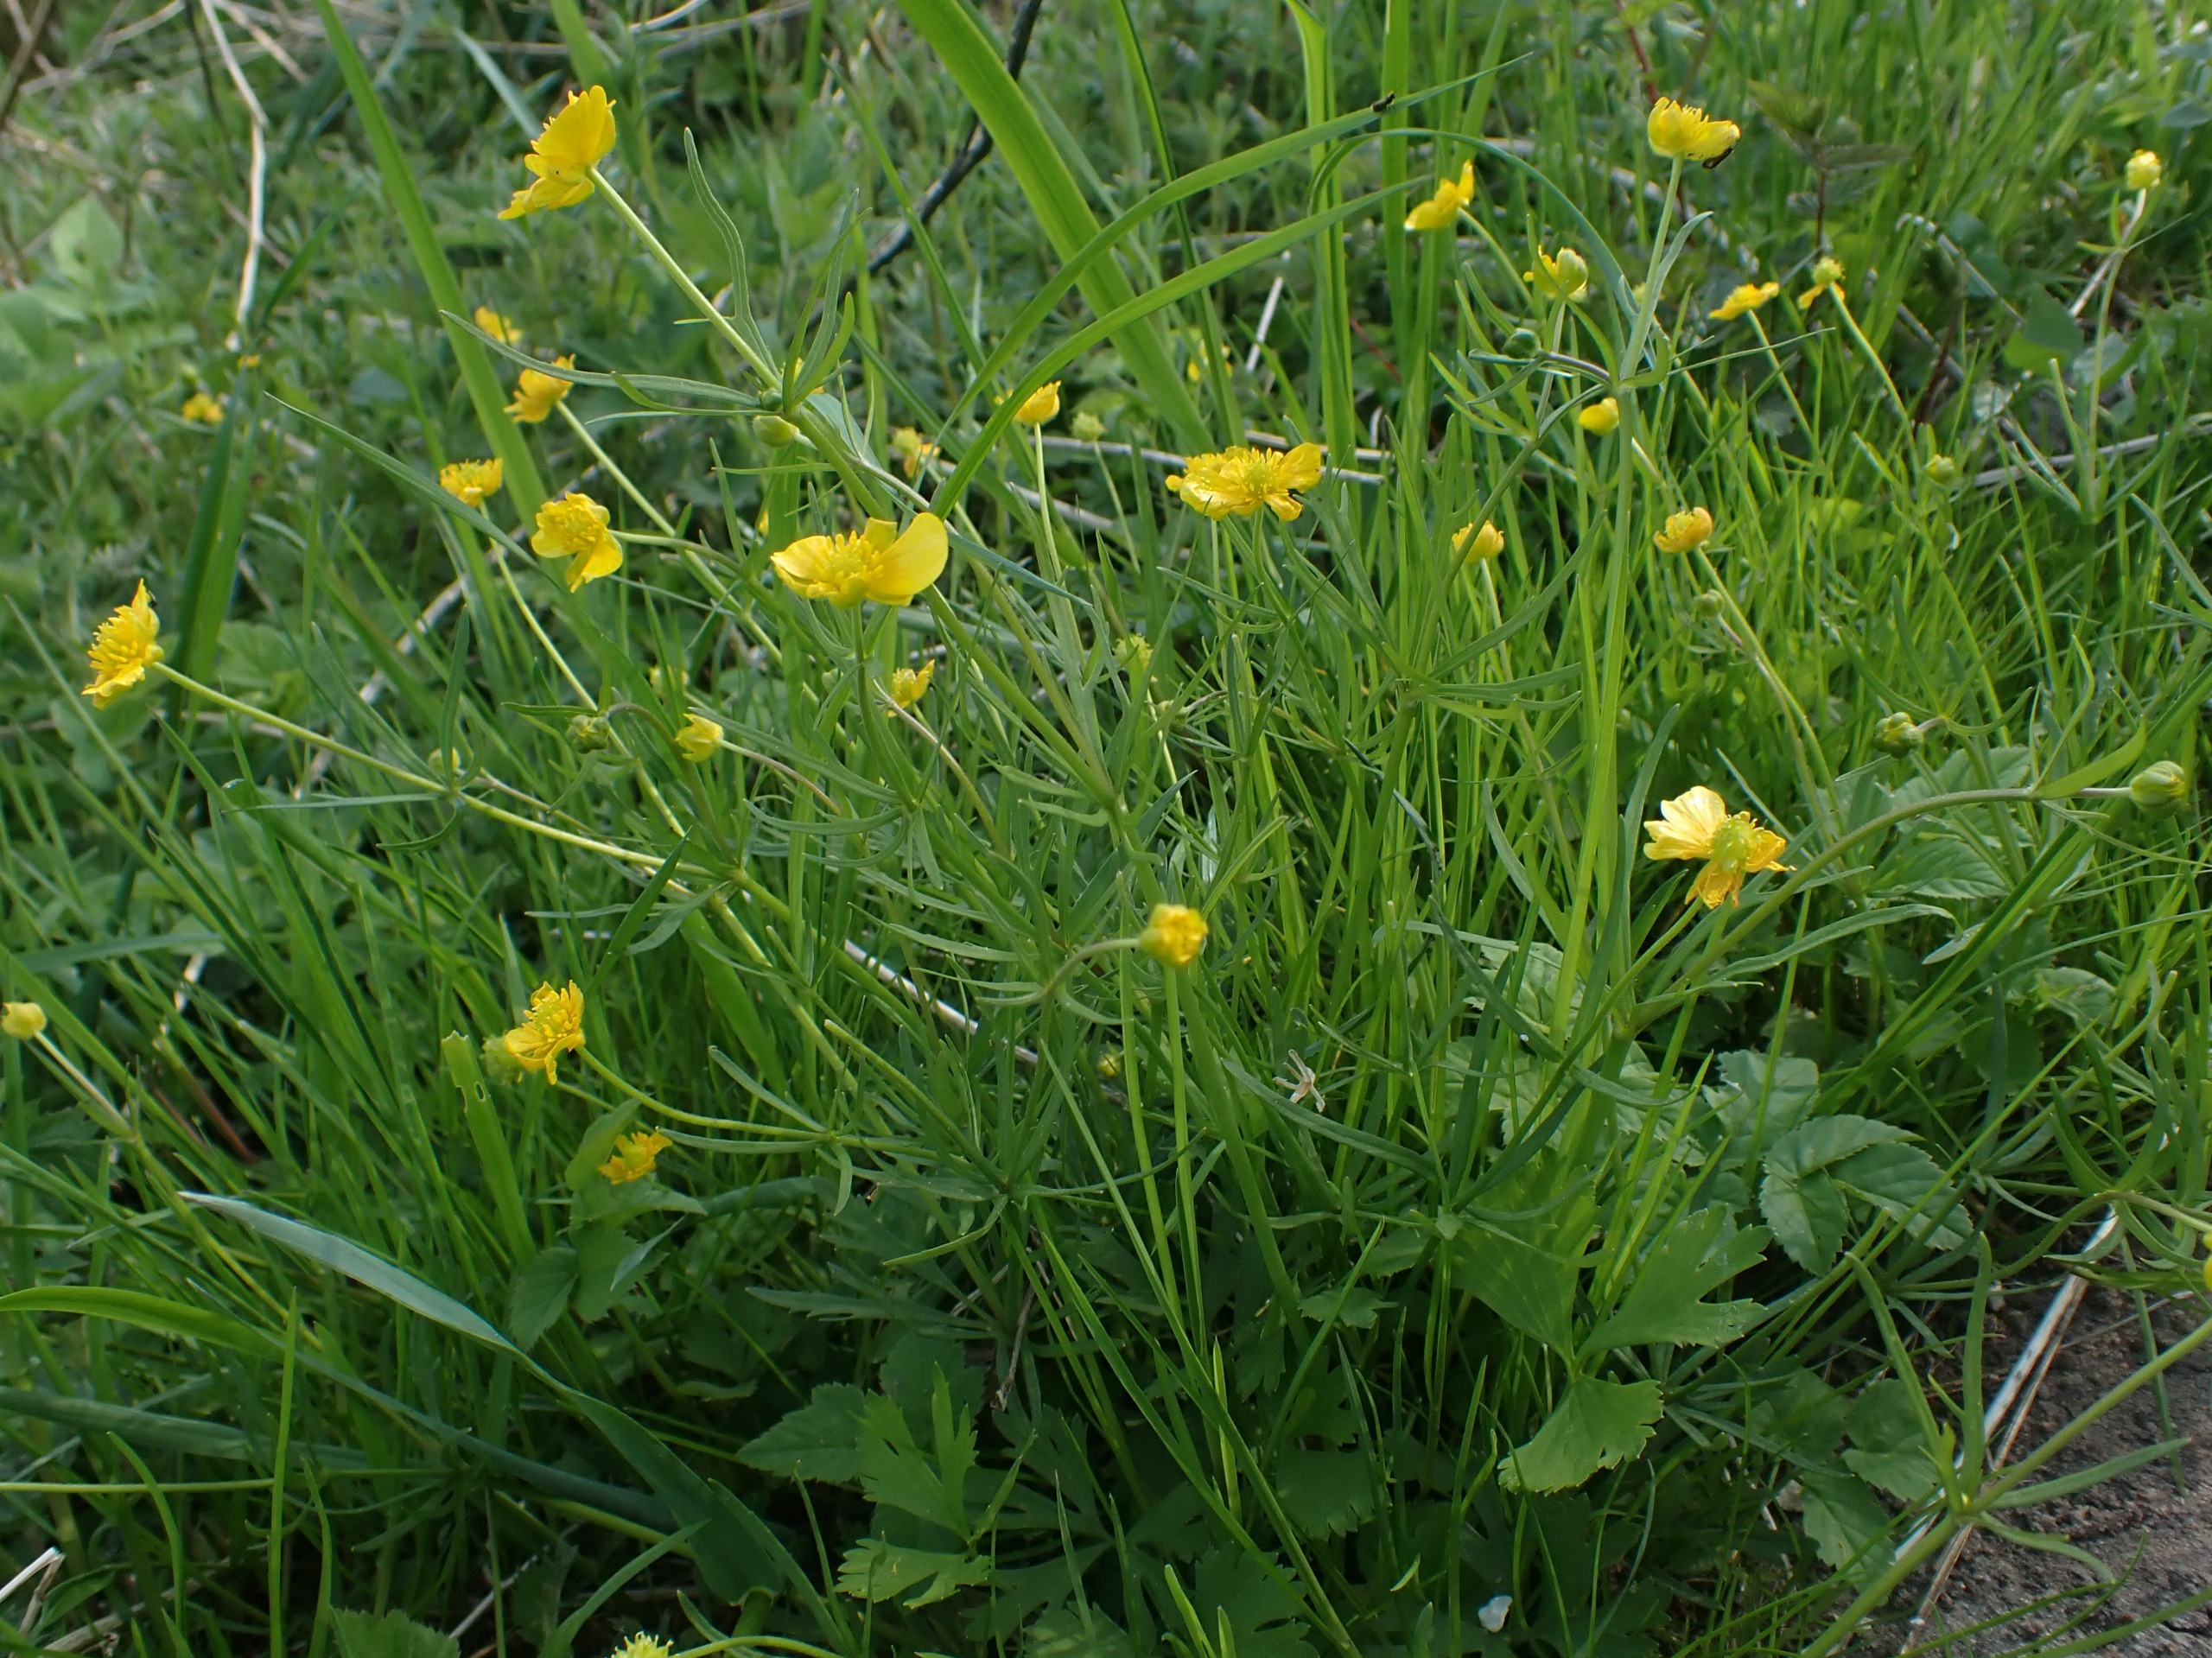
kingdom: Plantae
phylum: Tracheophyta
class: Magnoliopsida
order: Ranunculales
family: Ranunculaceae
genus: Ranunculus
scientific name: Ranunculus auricomus
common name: Nyrebladet ranunkel
